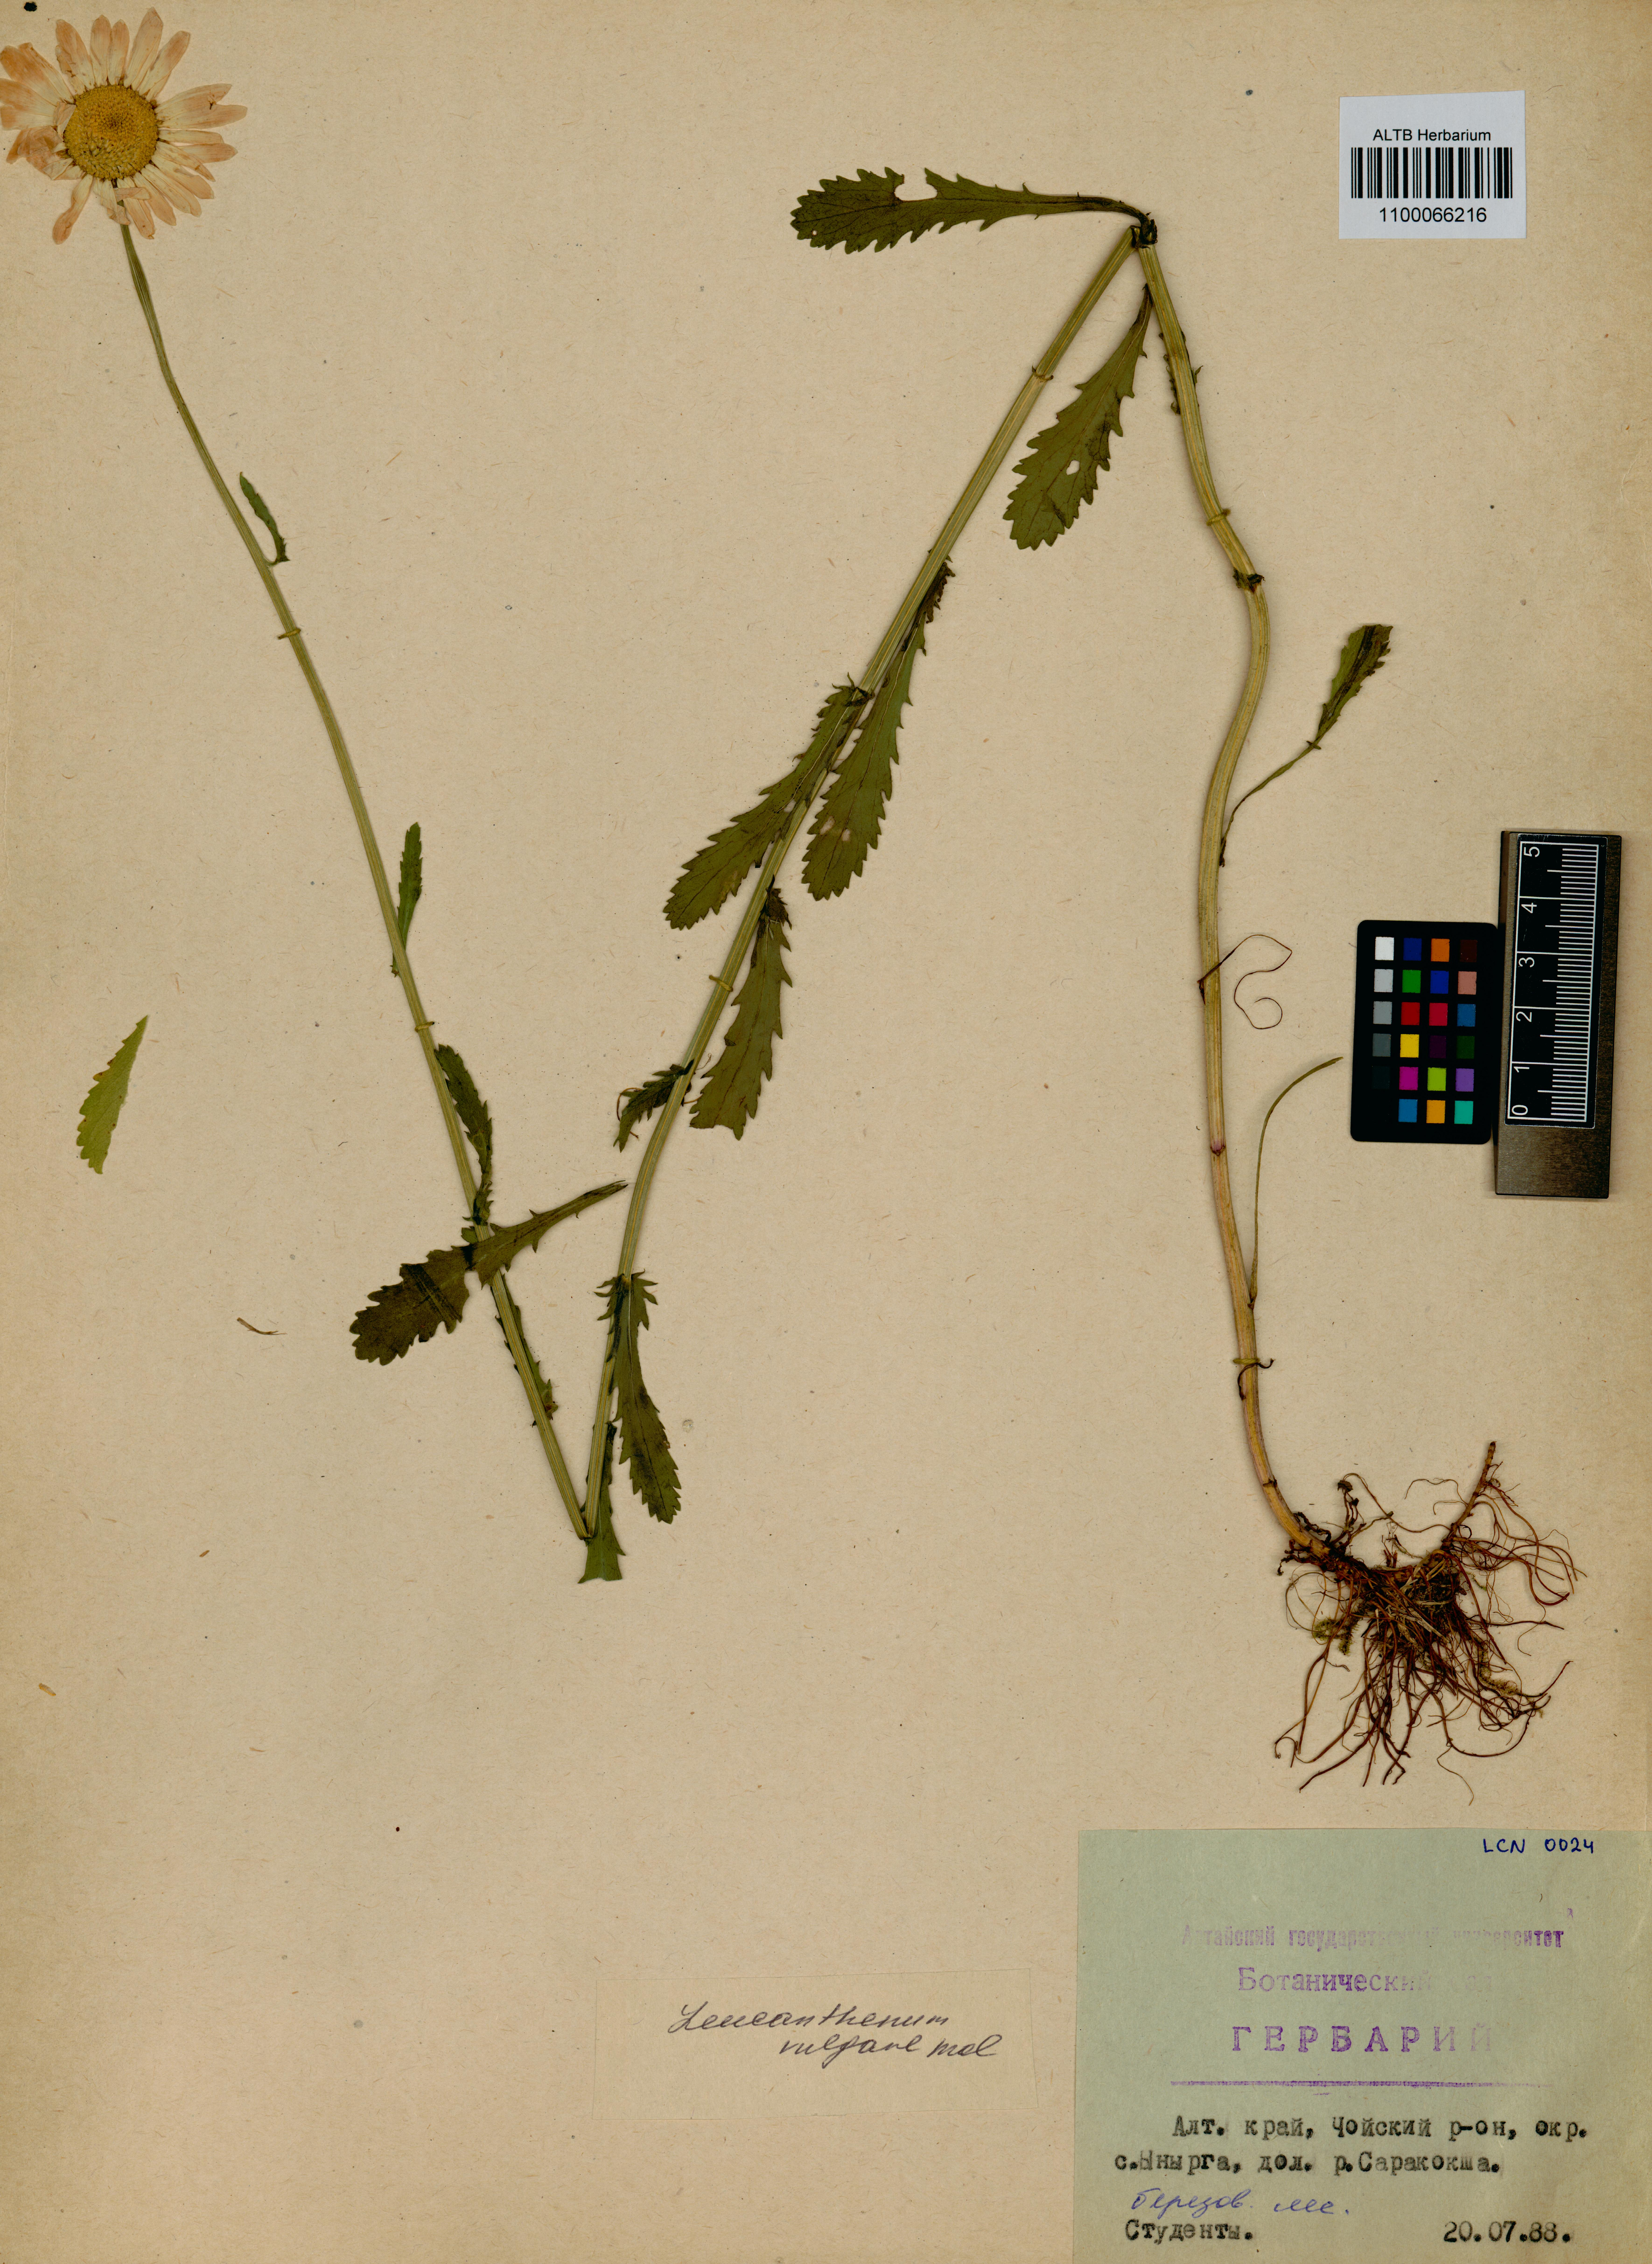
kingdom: Plantae
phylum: Tracheophyta
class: Magnoliopsida
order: Asterales
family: Asteraceae
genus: Leucanthemum
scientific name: Leucanthemum vulgare
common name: Oxeye daisy
